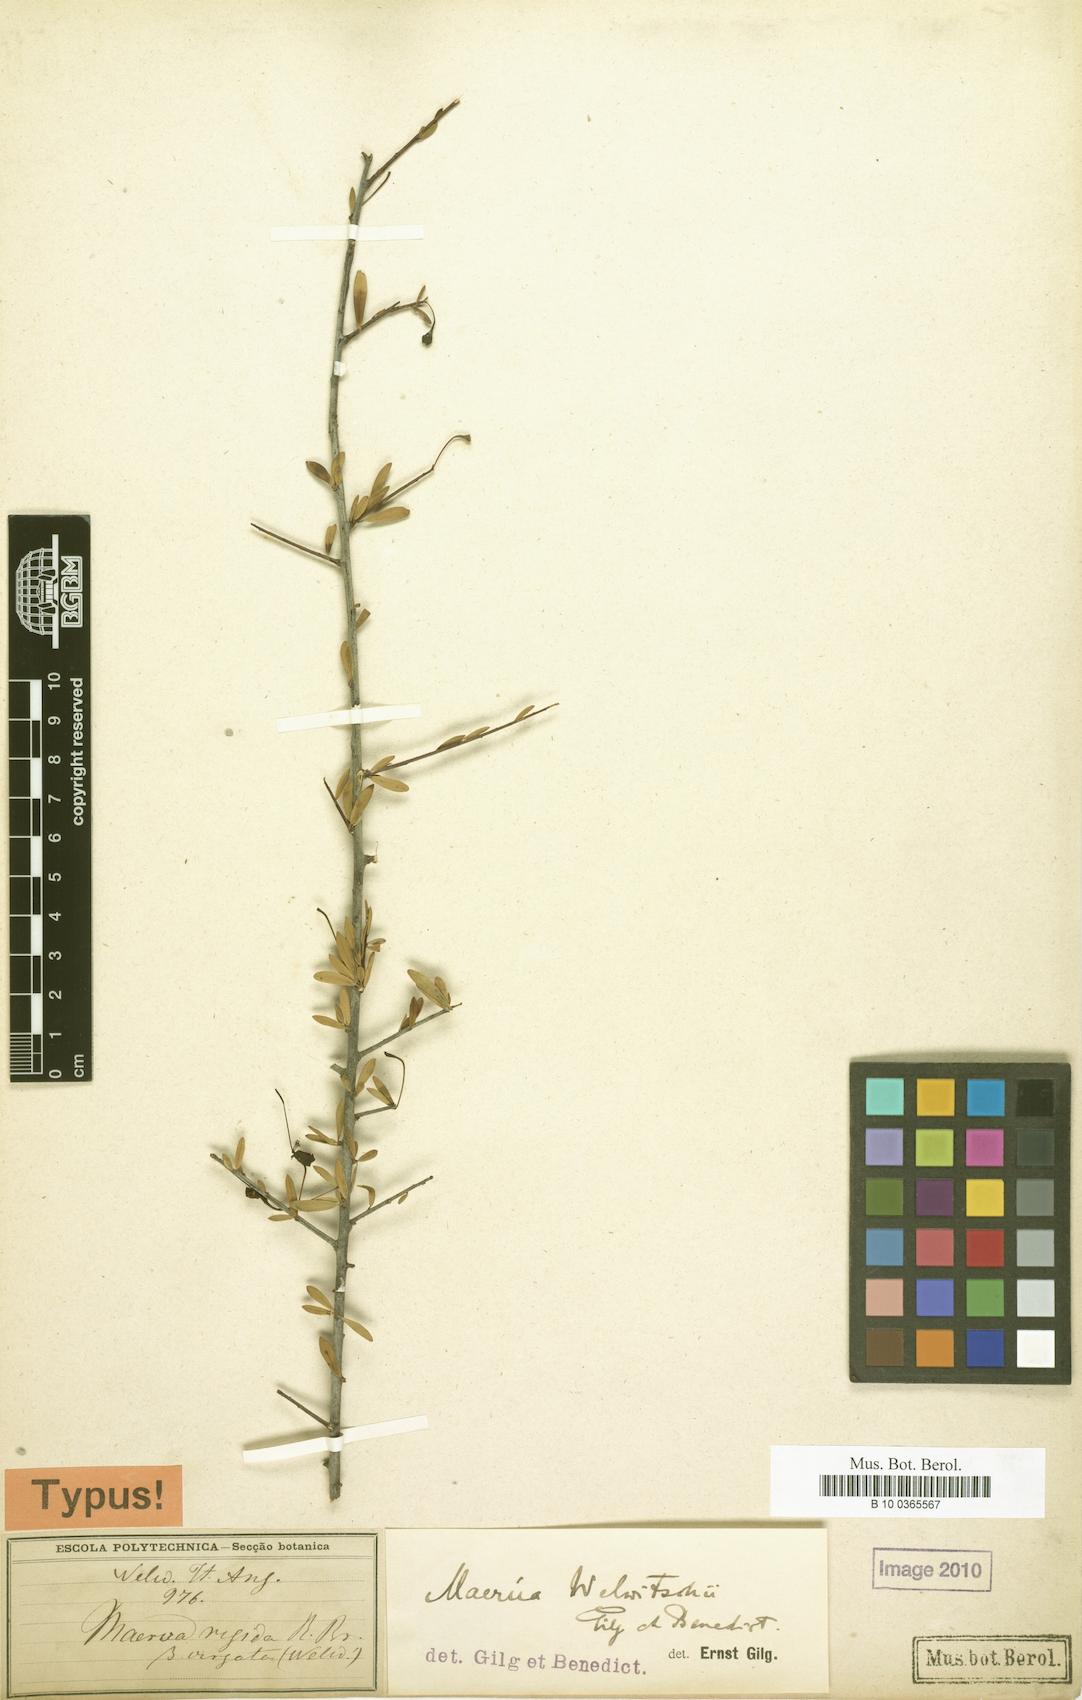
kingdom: Plantae
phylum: Tracheophyta
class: Magnoliopsida
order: Brassicales
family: Capparaceae
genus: Maerua
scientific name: Maerua buxifolia
